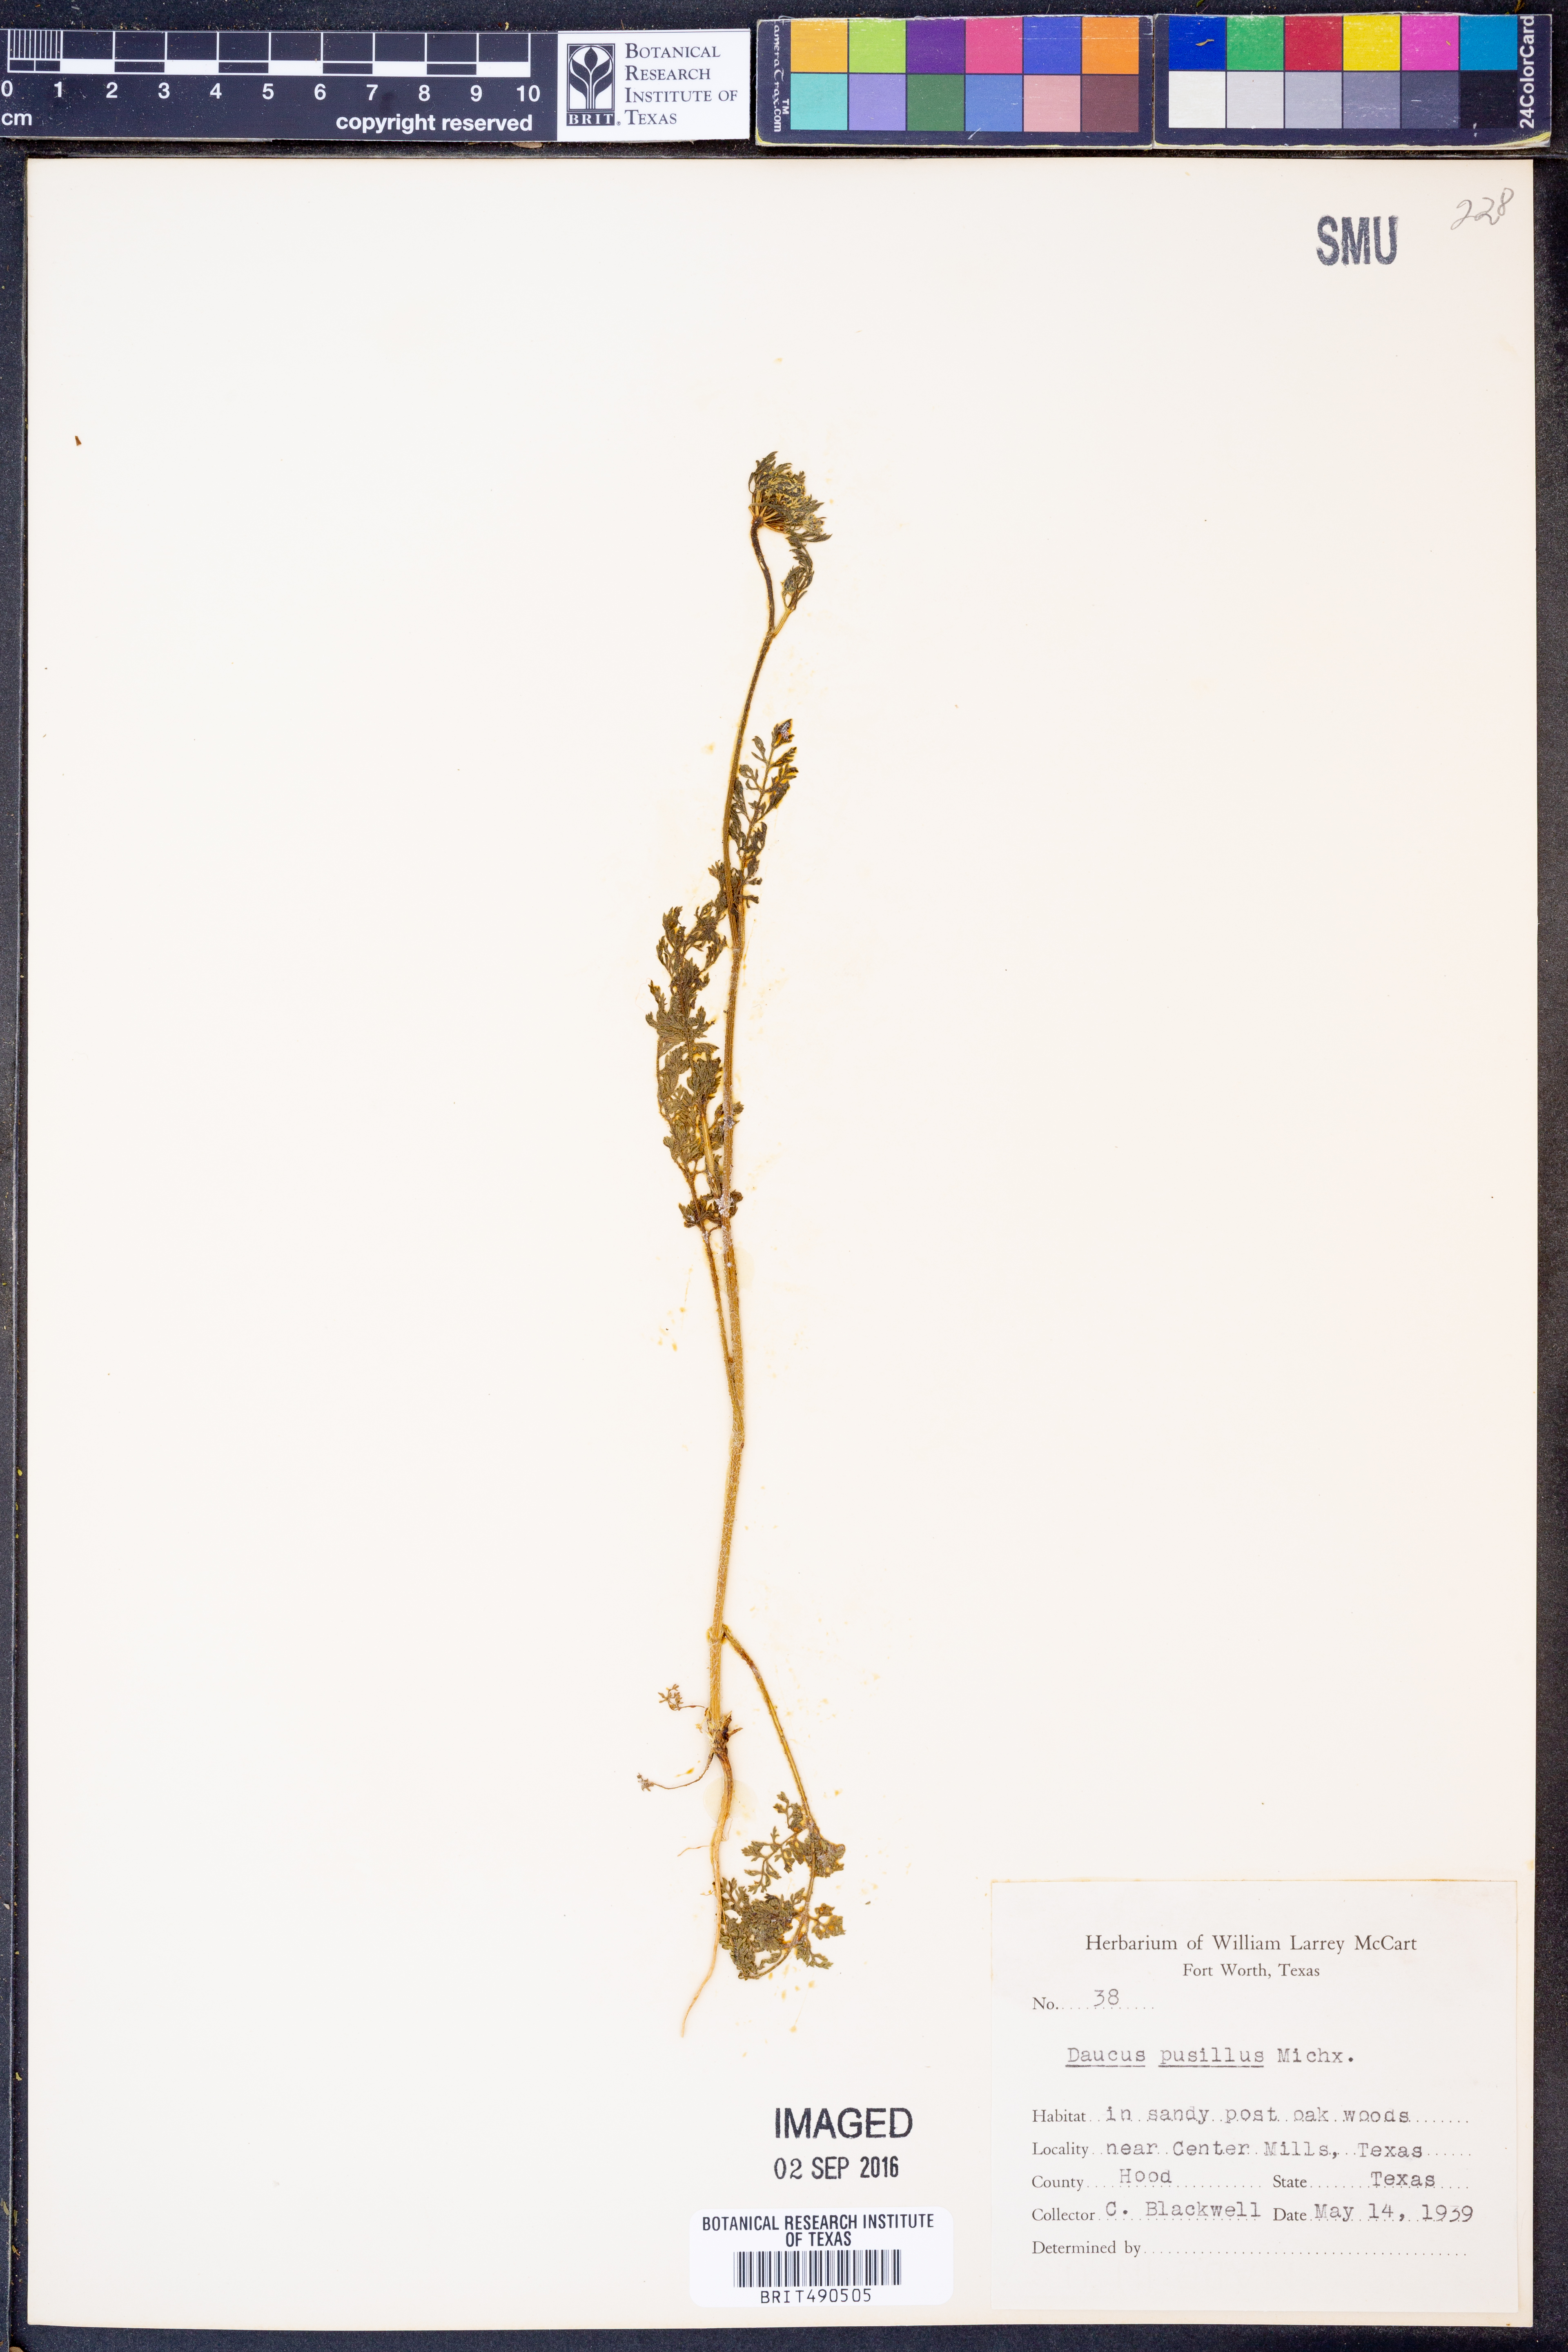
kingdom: Plantae
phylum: Tracheophyta
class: Magnoliopsida
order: Apiales
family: Apiaceae
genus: Daucus
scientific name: Daucus pusillus
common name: Southwest wild carrot
